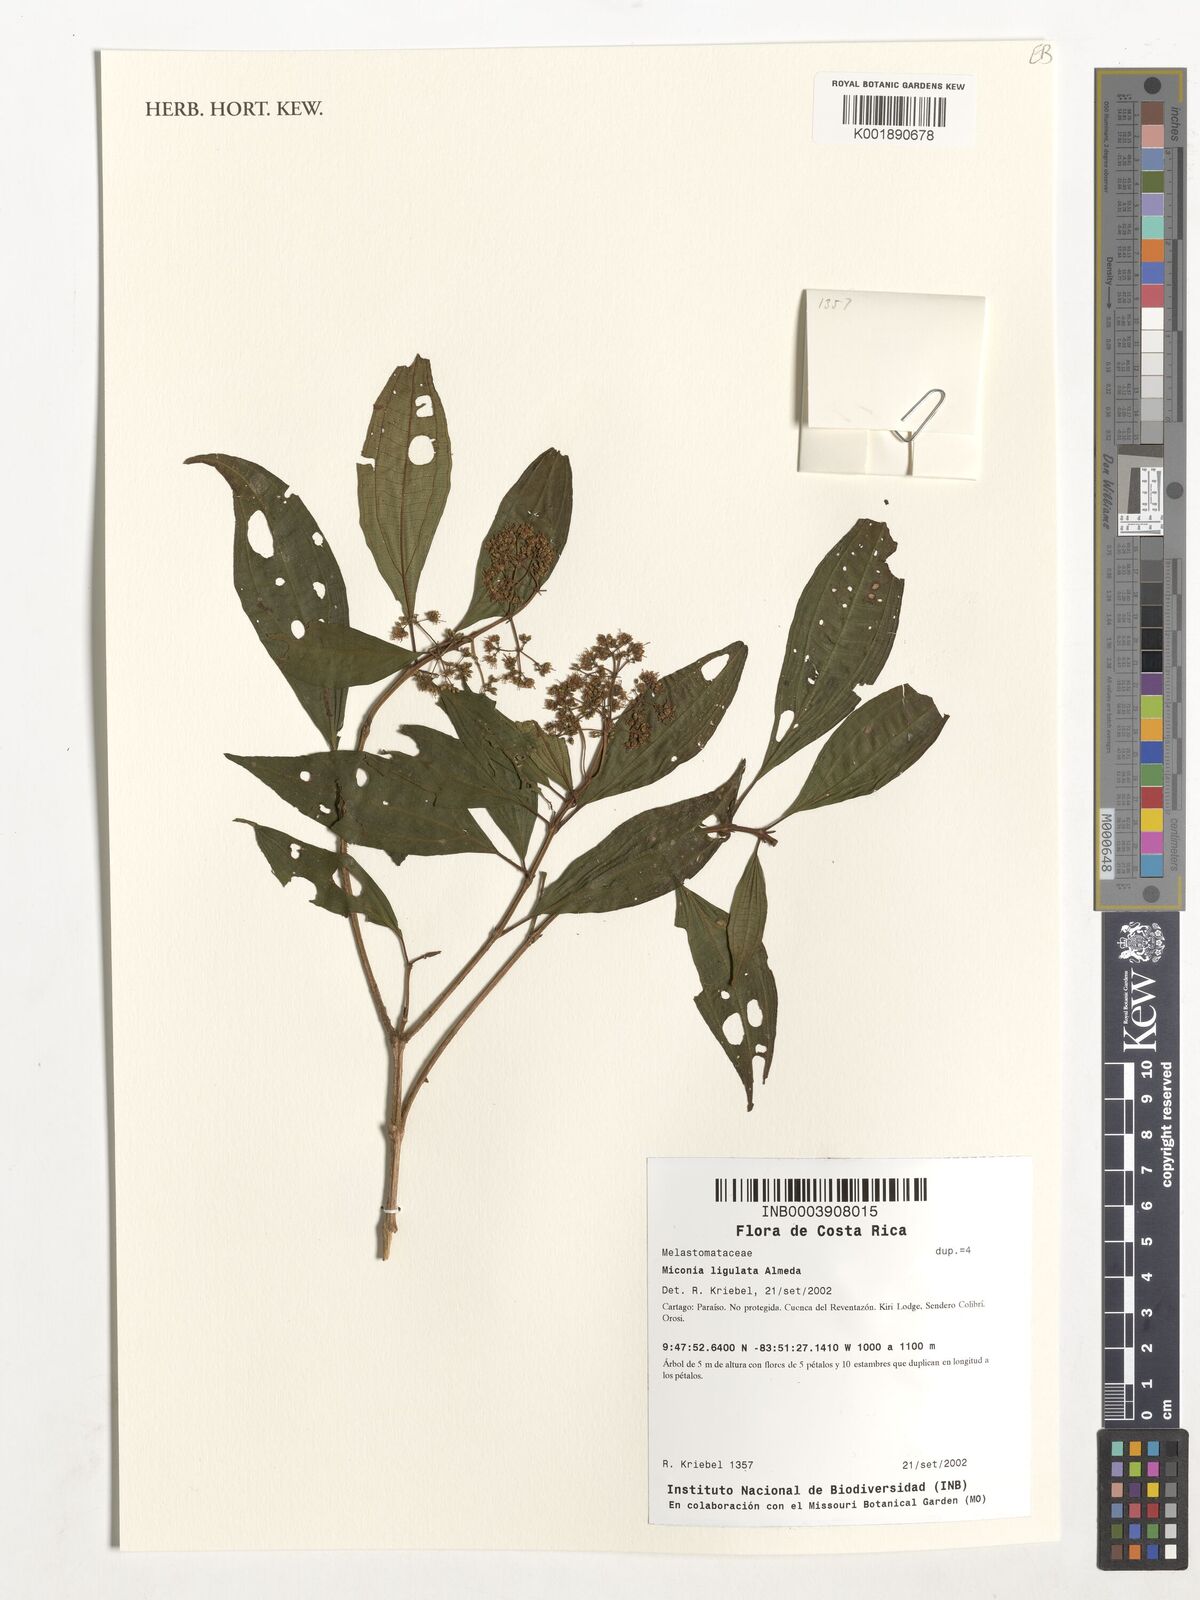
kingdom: Plantae
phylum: Tracheophyta
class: Magnoliopsida
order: Myrtales
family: Melastomataceae
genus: Miconia
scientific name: Miconia ligulata
